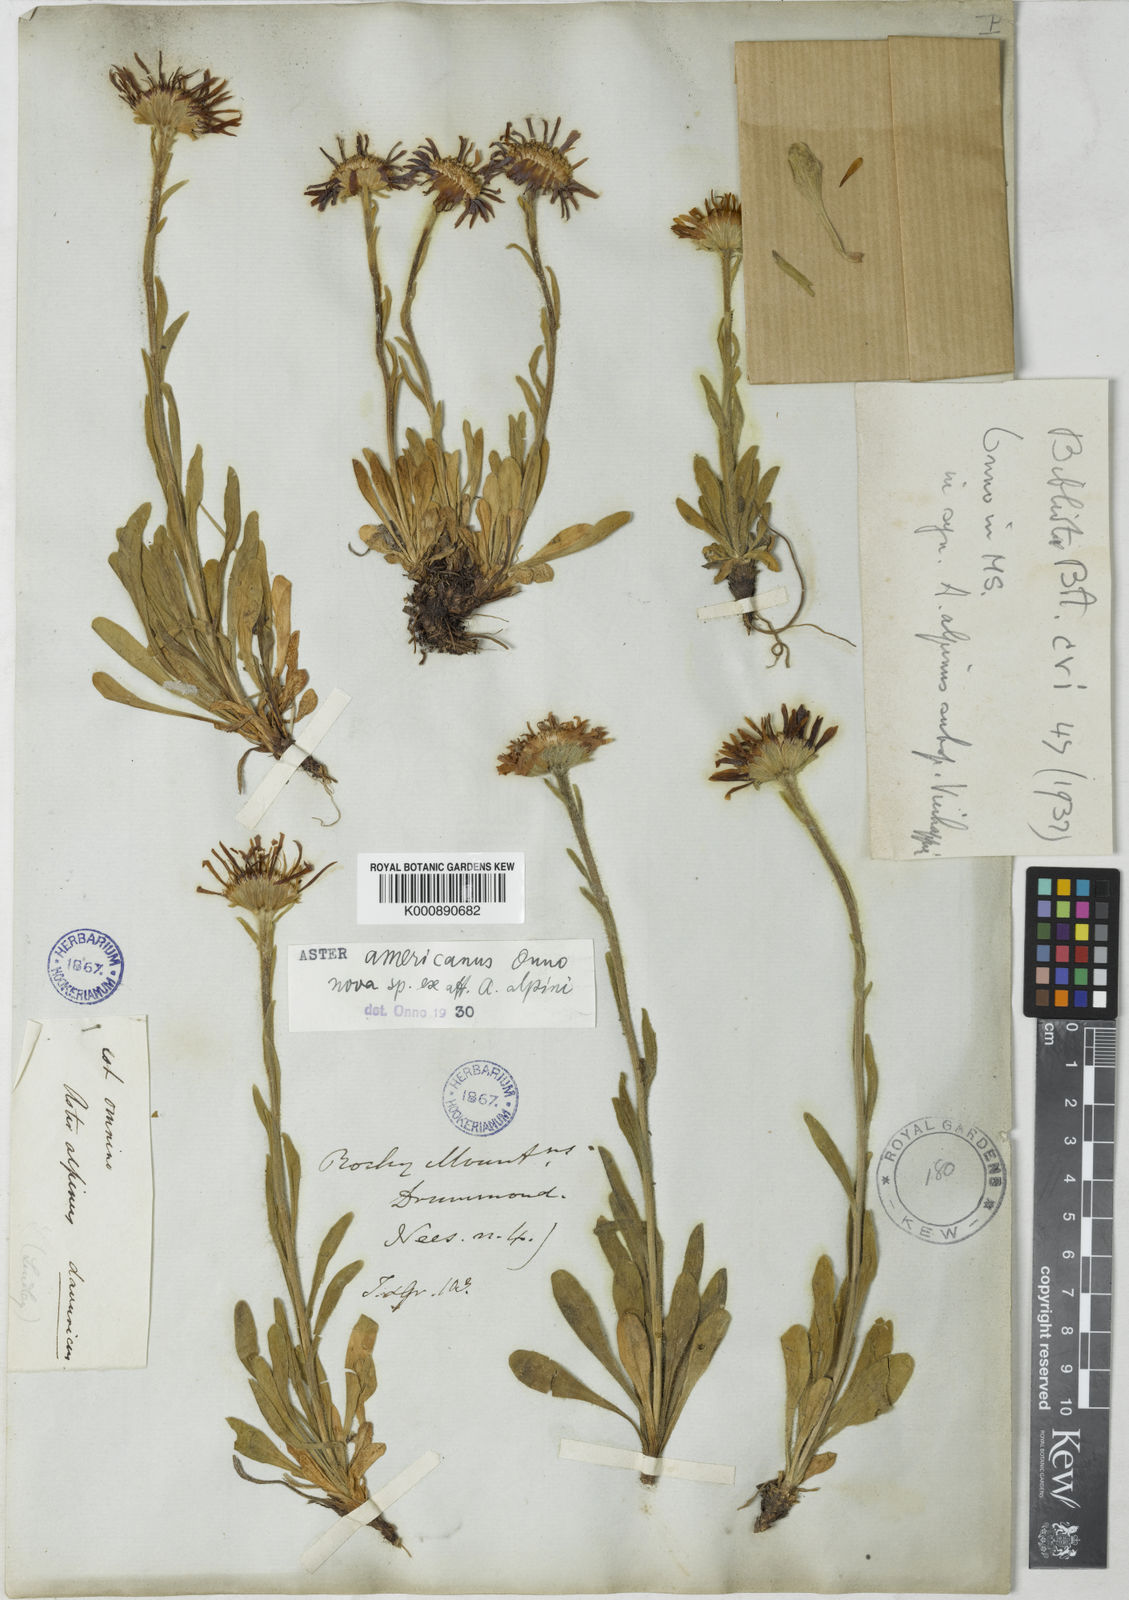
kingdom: Plantae
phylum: Tracheophyta
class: Magnoliopsida
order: Asterales
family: Asteraceae
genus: Aster
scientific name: Aster alpinus
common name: Alpine aster
